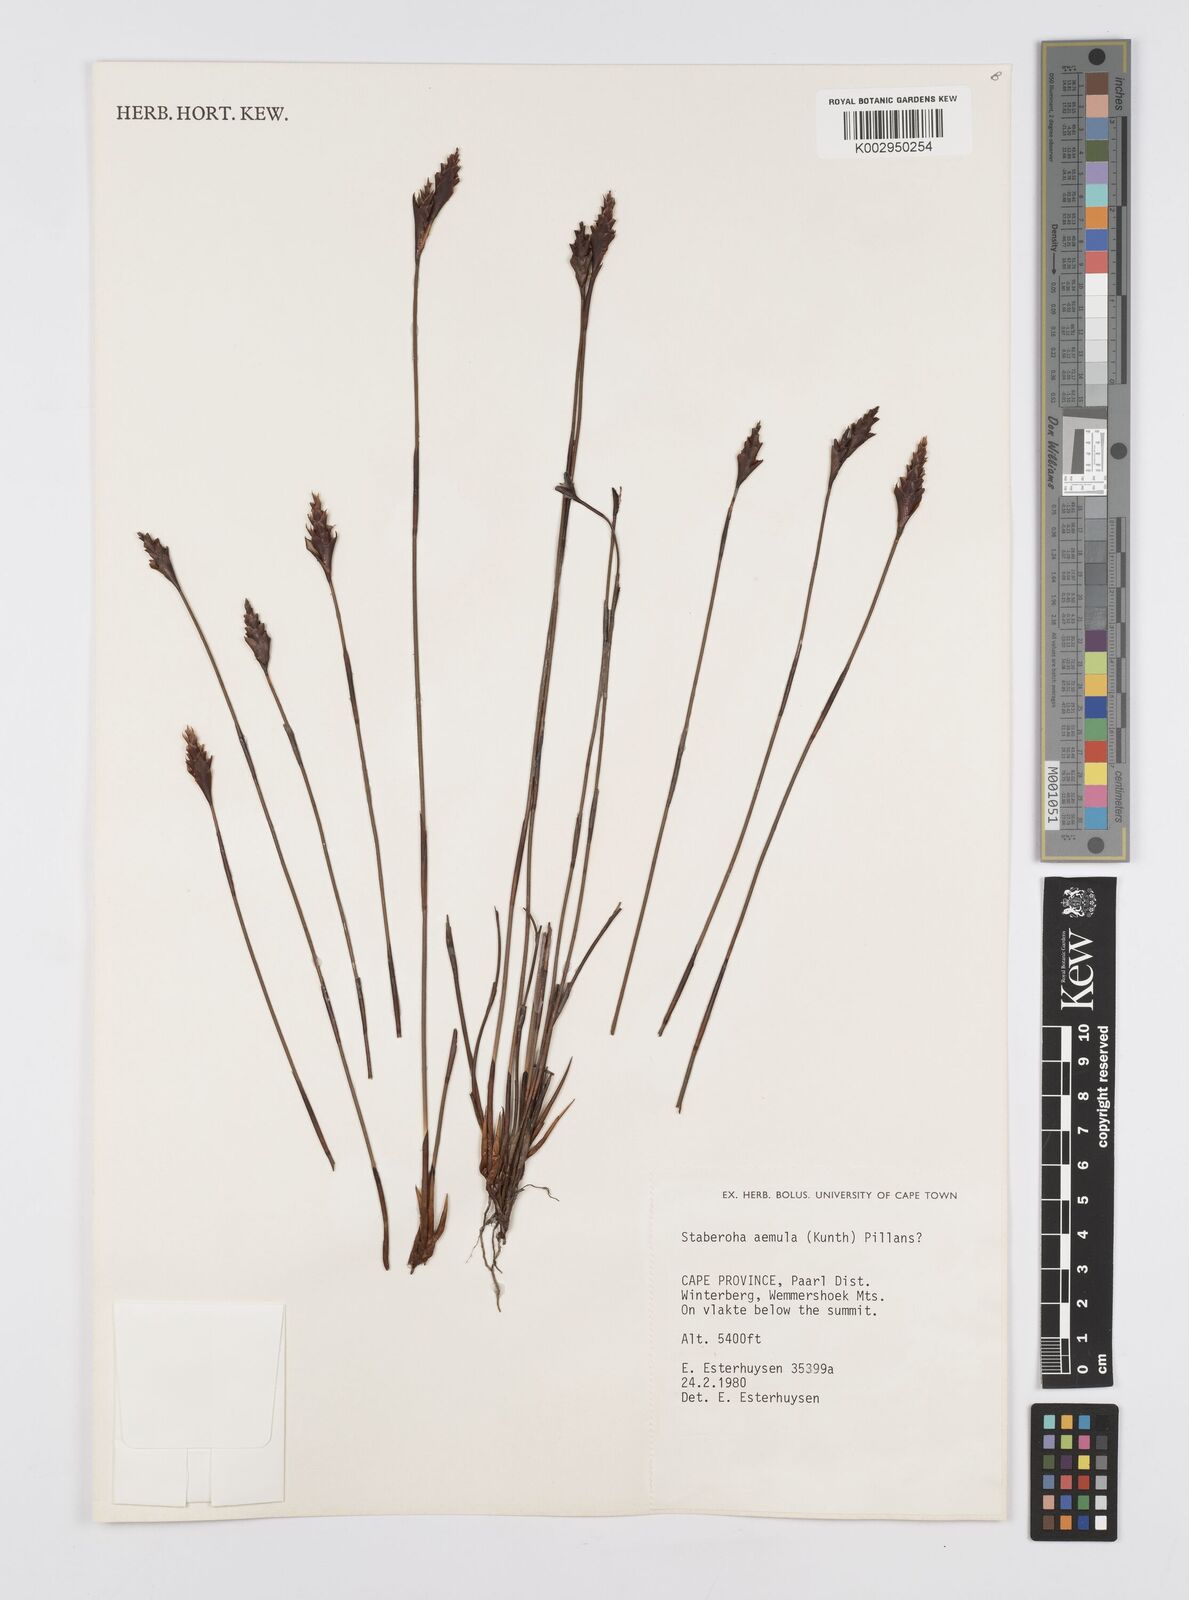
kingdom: Plantae
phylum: Tracheophyta
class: Liliopsida
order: Poales
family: Restionaceae
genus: Staberoha
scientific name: Staberoha aemula
